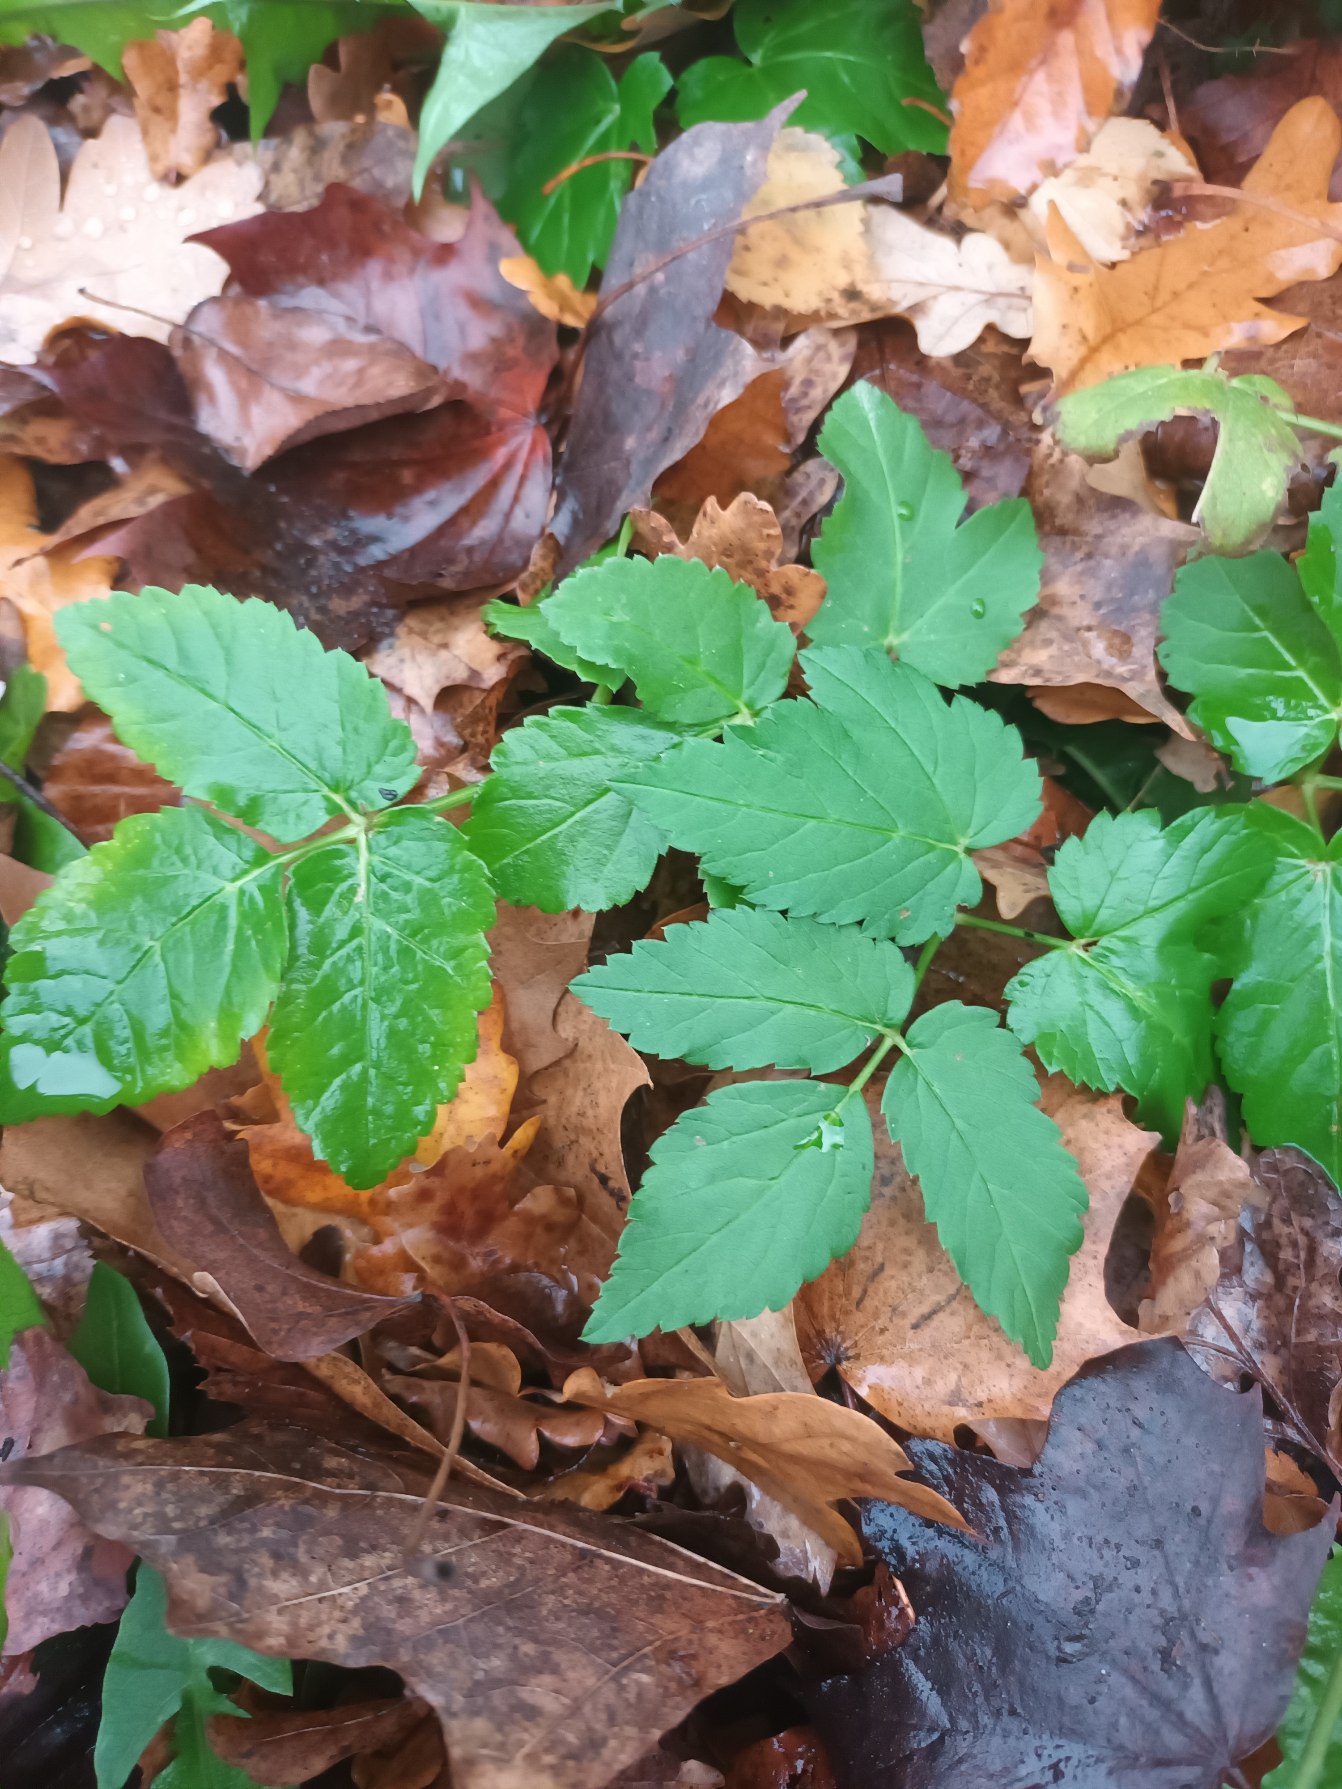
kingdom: Plantae
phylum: Tracheophyta
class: Magnoliopsida
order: Apiales
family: Apiaceae
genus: Aegopodium
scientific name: Aegopodium podagraria
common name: Skvalderkål
